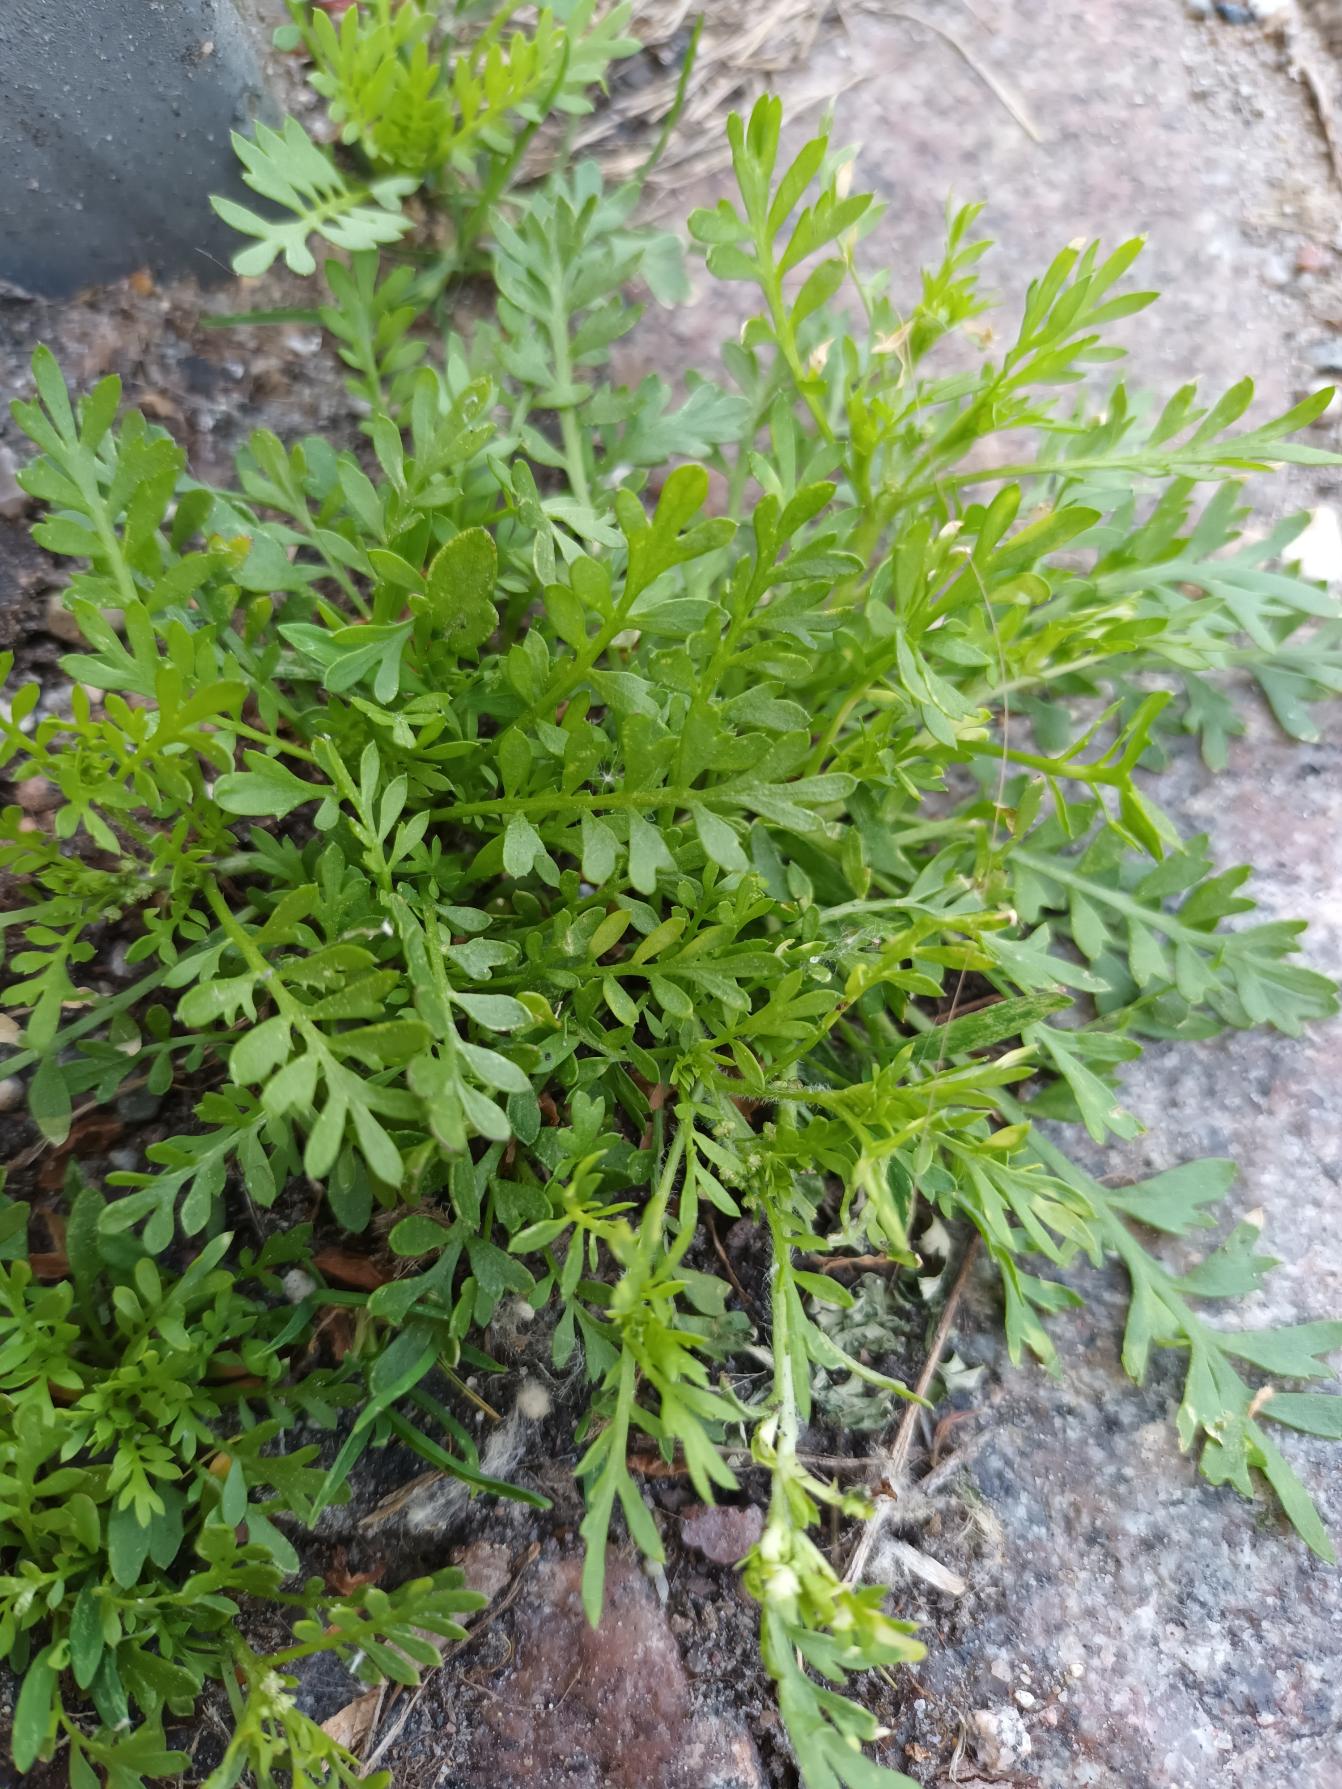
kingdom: Plantae
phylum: Tracheophyta
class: Magnoliopsida
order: Brassicales
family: Brassicaceae
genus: Lepidium
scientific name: Lepidium didymum
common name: Liden ravnefod
